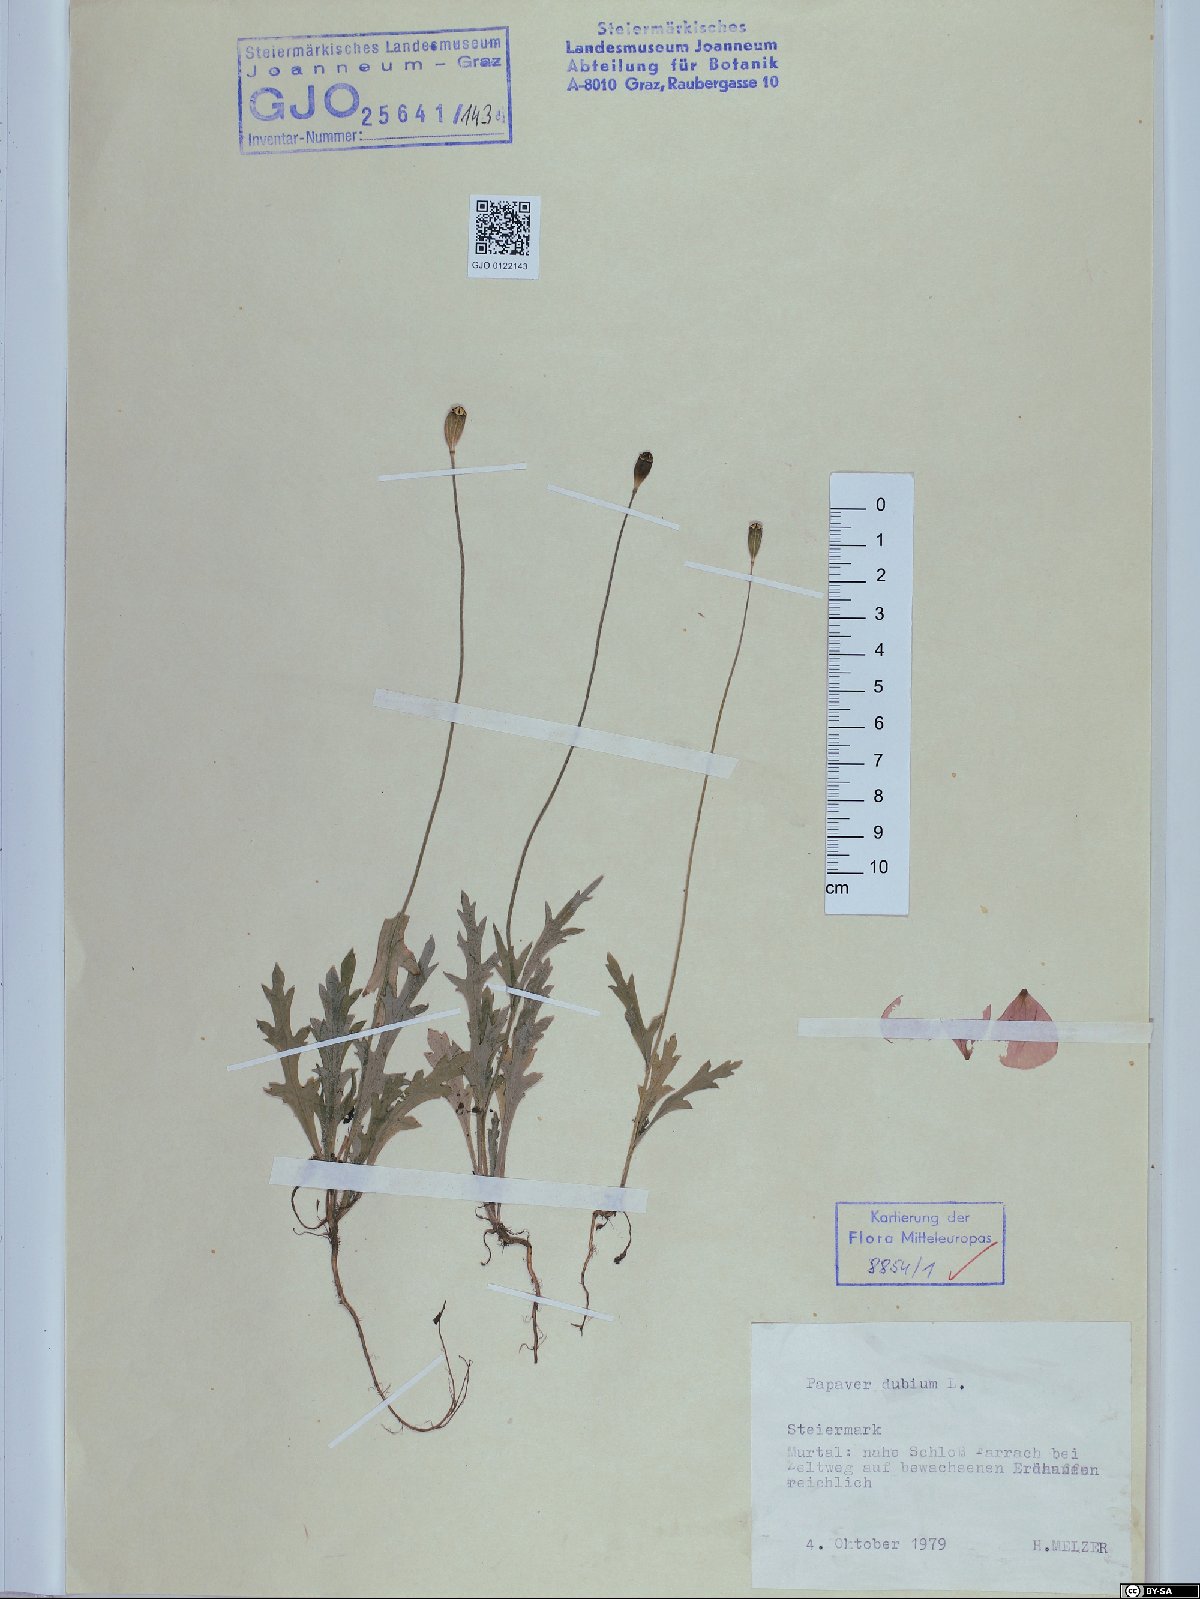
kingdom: Plantae
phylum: Tracheophyta
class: Magnoliopsida
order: Ranunculales
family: Papaveraceae
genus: Papaver
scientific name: Papaver dubium
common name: Long-headed poppy
